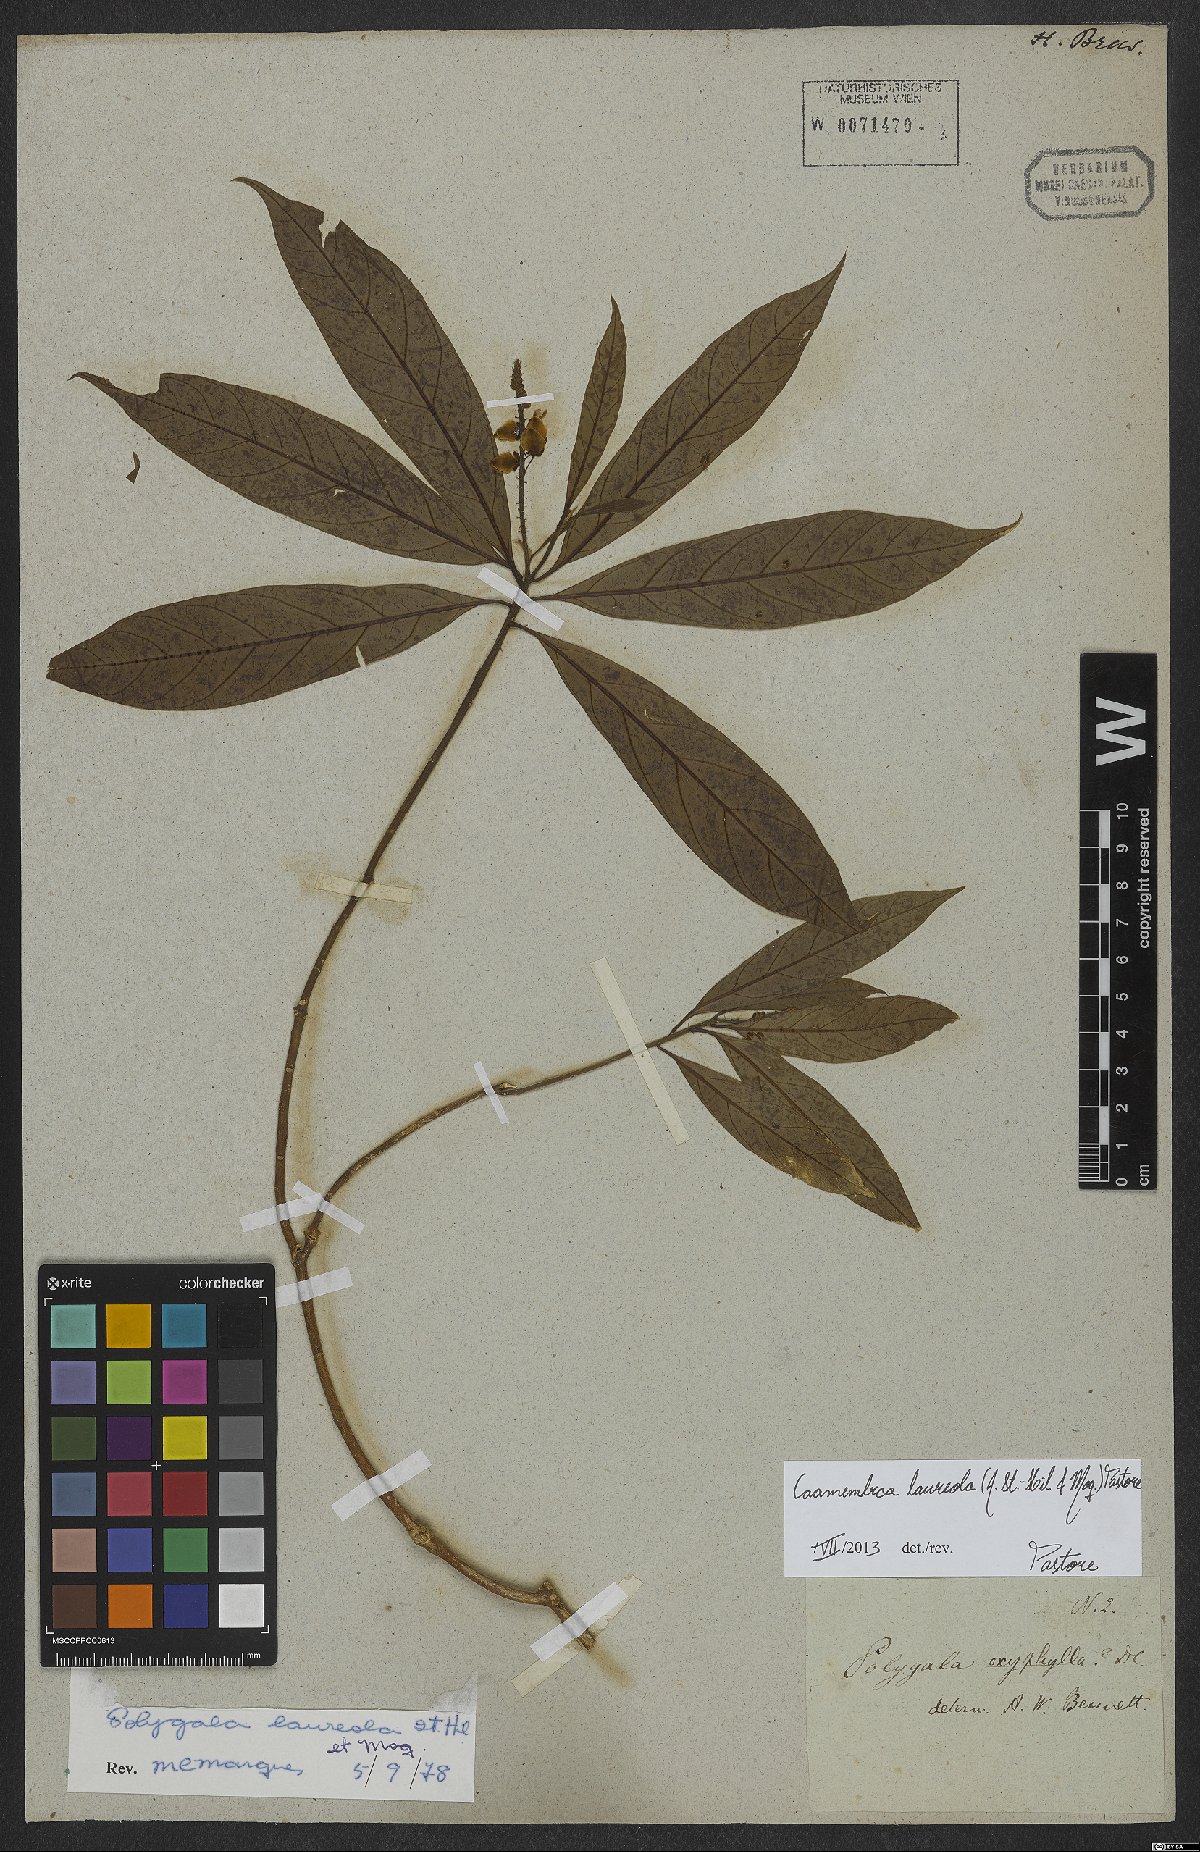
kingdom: Plantae
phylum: Tracheophyta
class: Magnoliopsida
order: Fabales
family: Polygalaceae
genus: Caamembeca
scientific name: Caamembeca salicifolia
